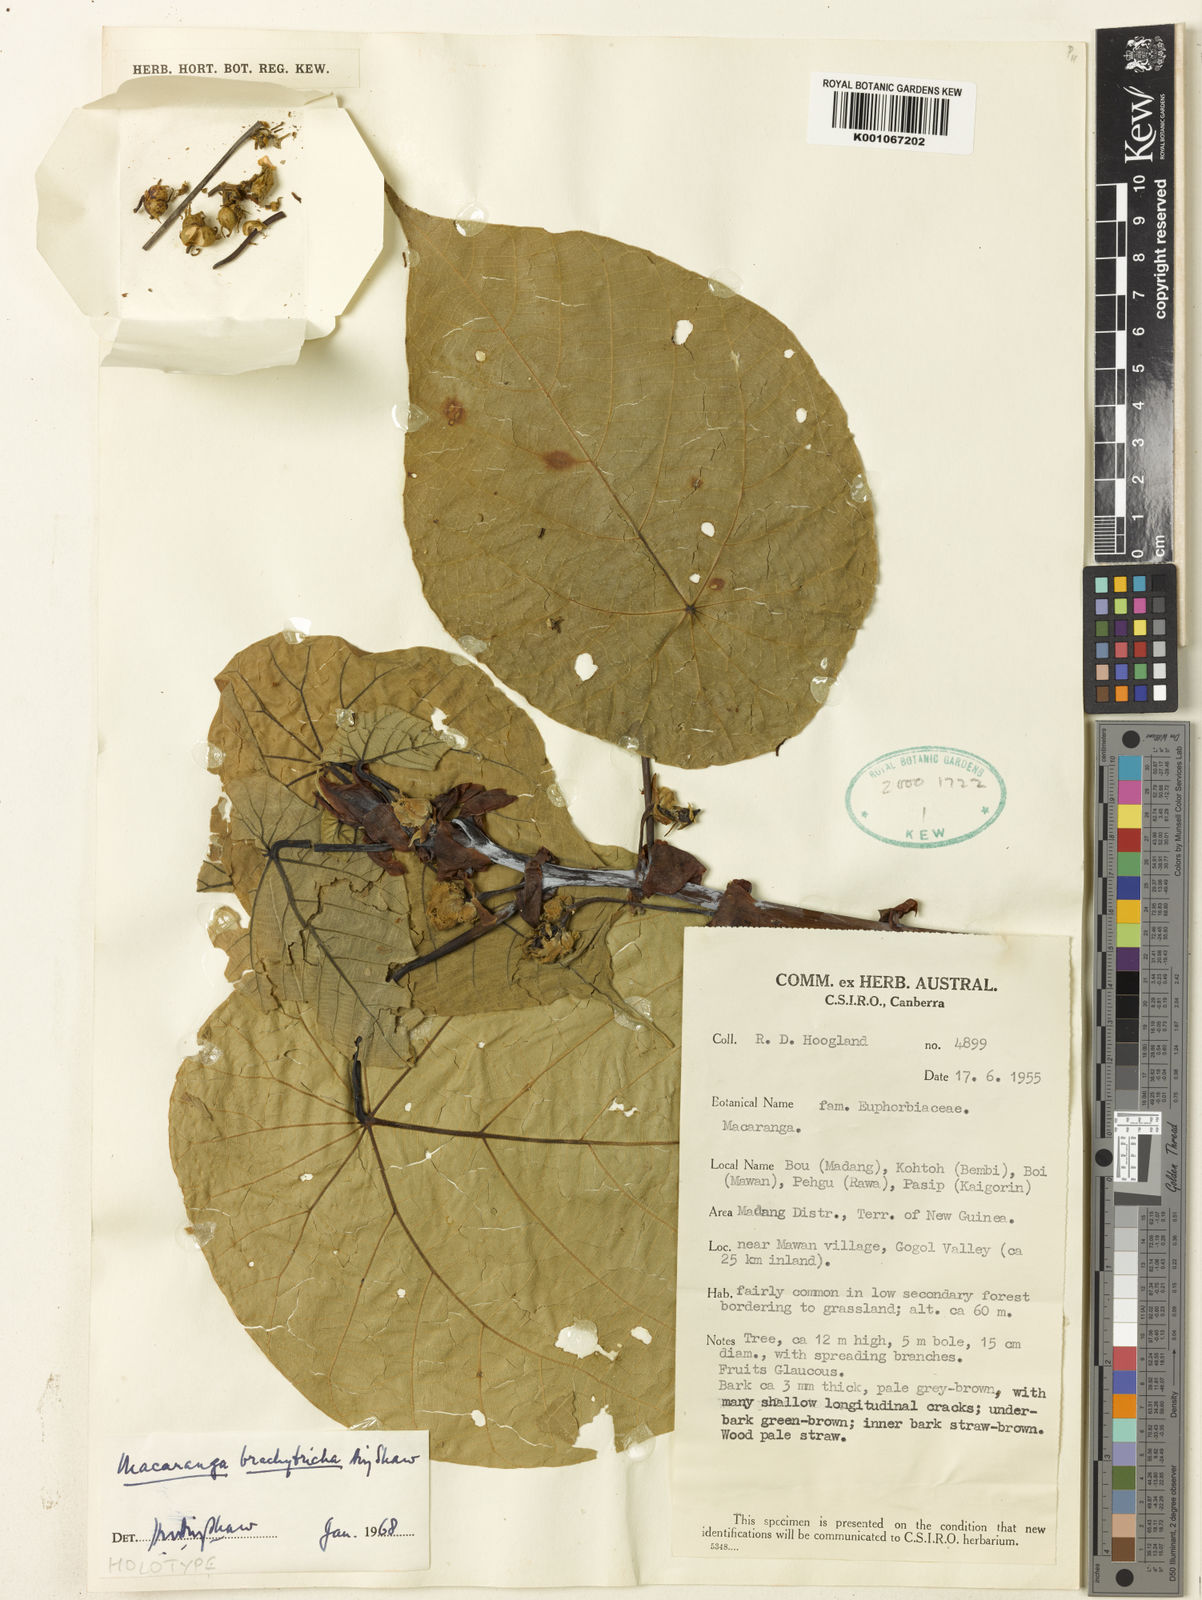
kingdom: Plantae
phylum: Tracheophyta
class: Magnoliopsida
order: Malpighiales
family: Euphorbiaceae
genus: Macaranga
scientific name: Macaranga brachytricha
